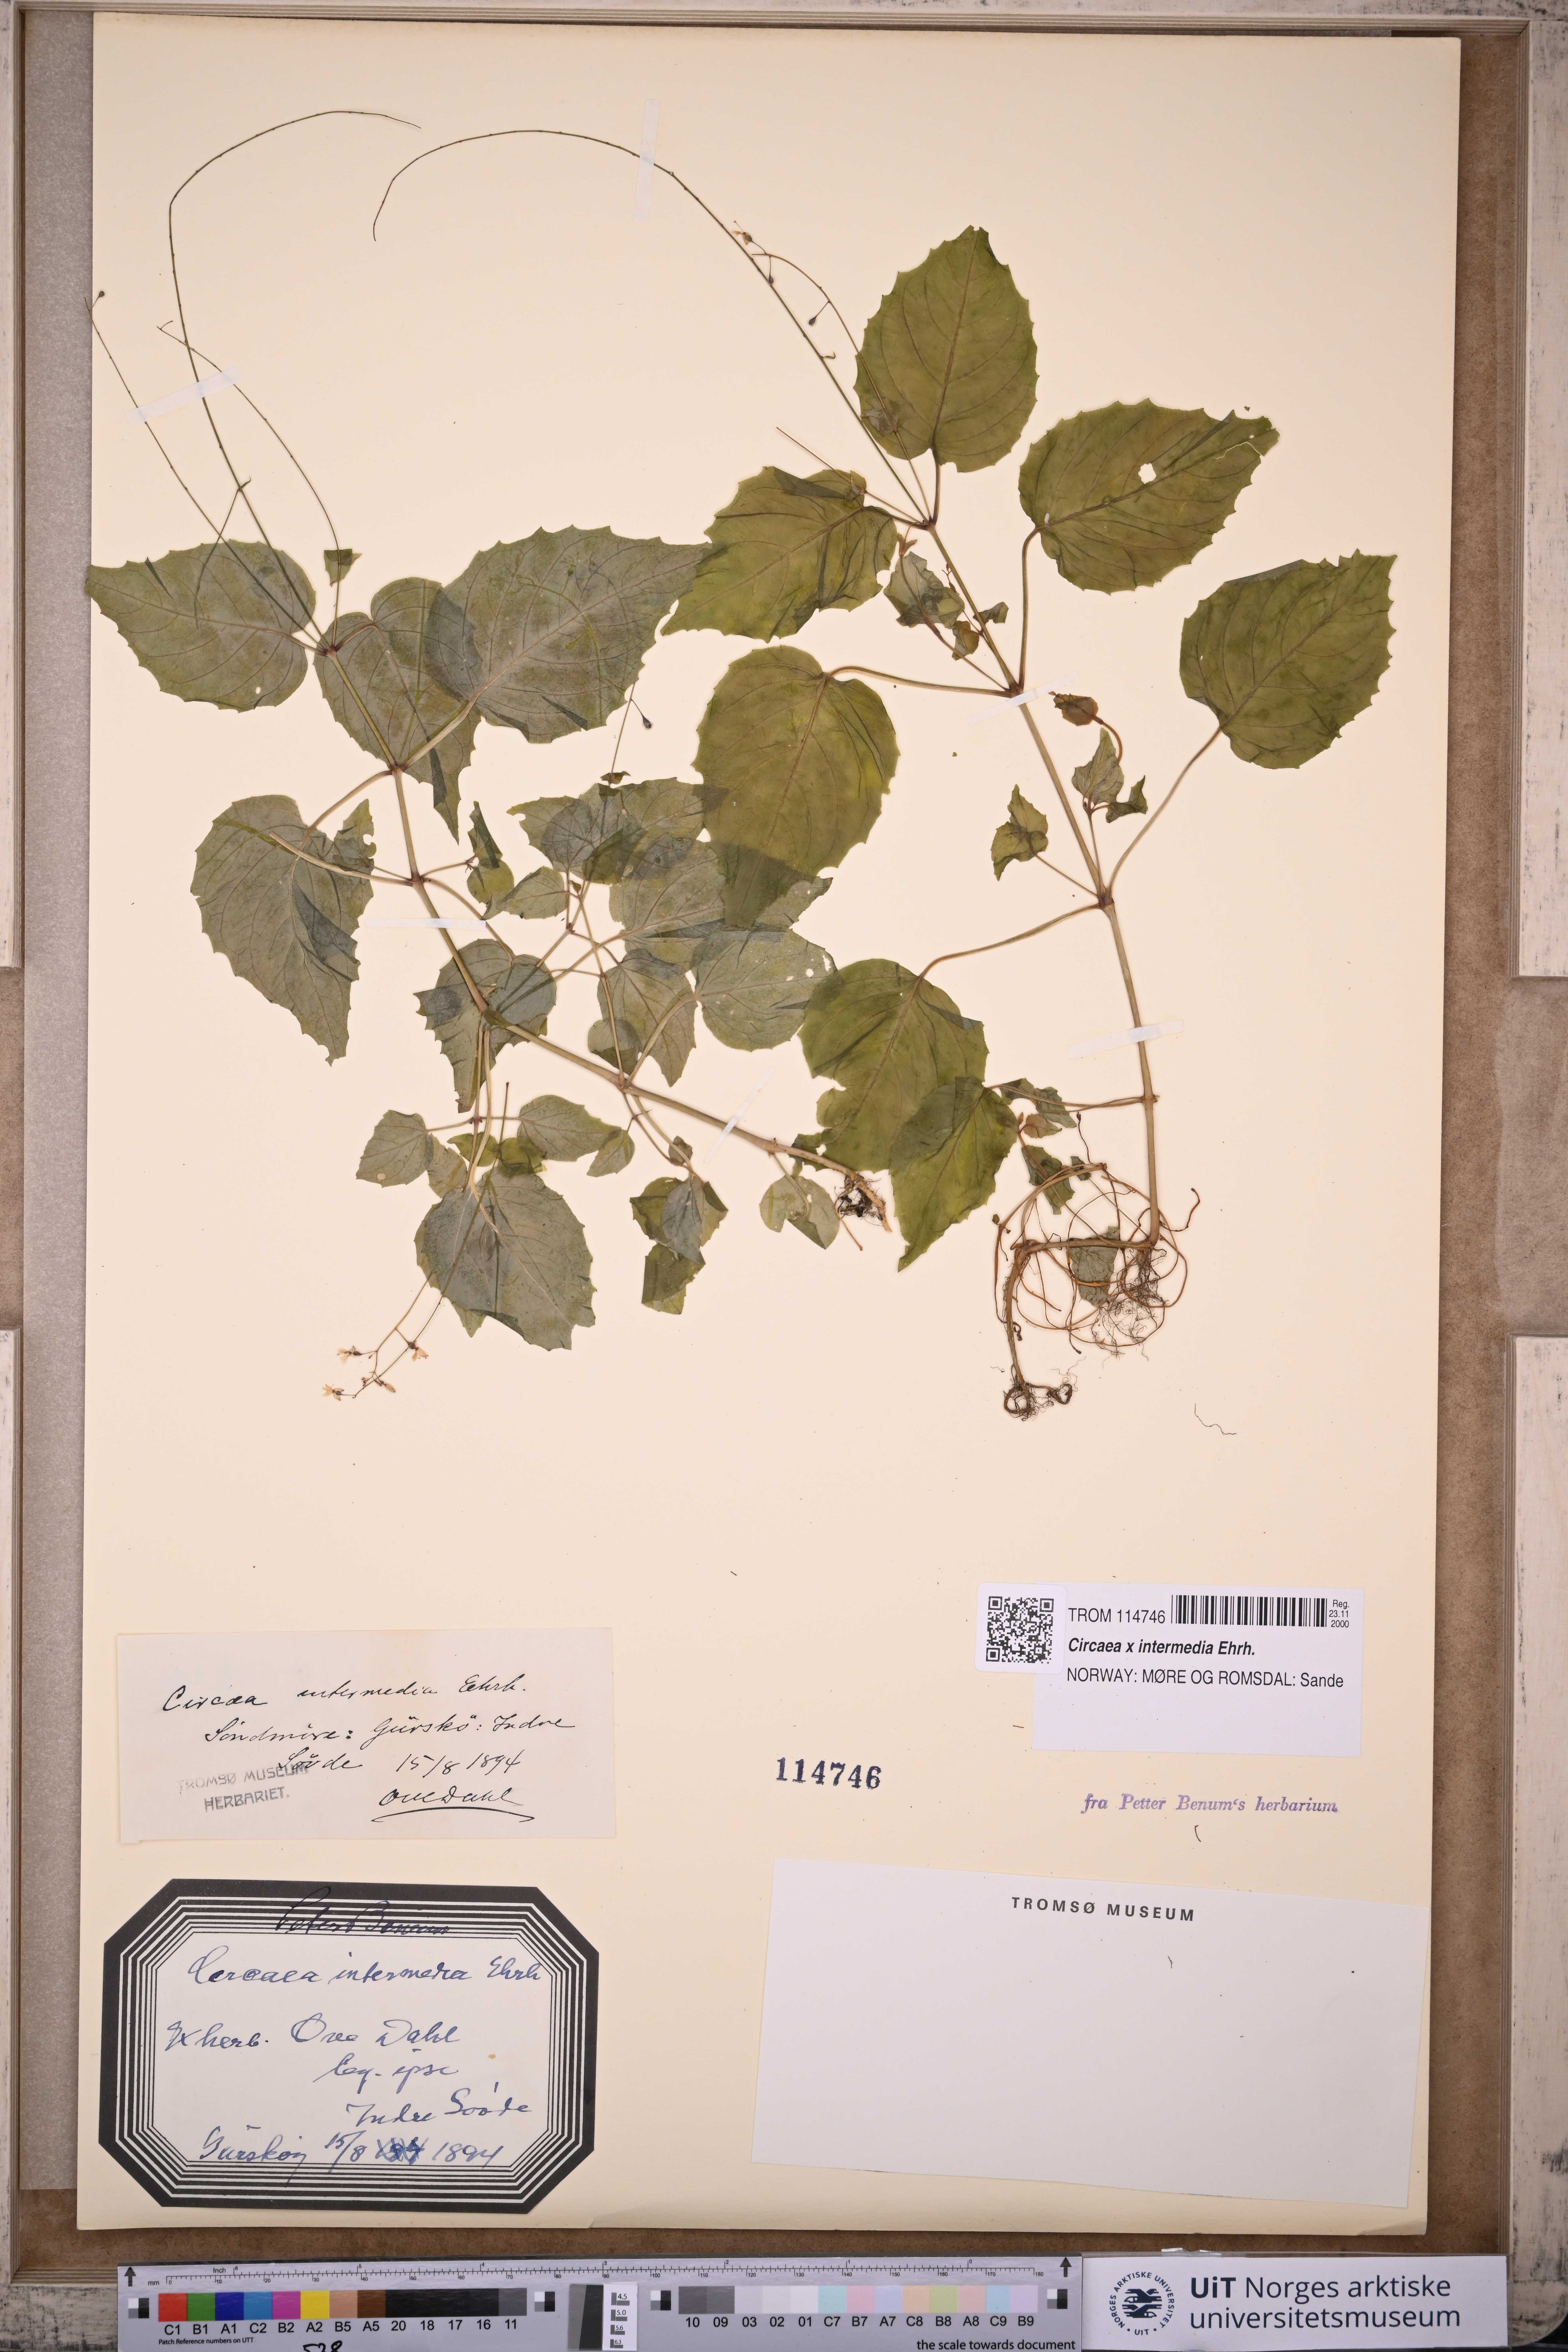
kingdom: Plantae
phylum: Tracheophyta
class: Magnoliopsida
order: Myrtales
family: Onagraceae
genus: Circaea
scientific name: Circaea intermedia
